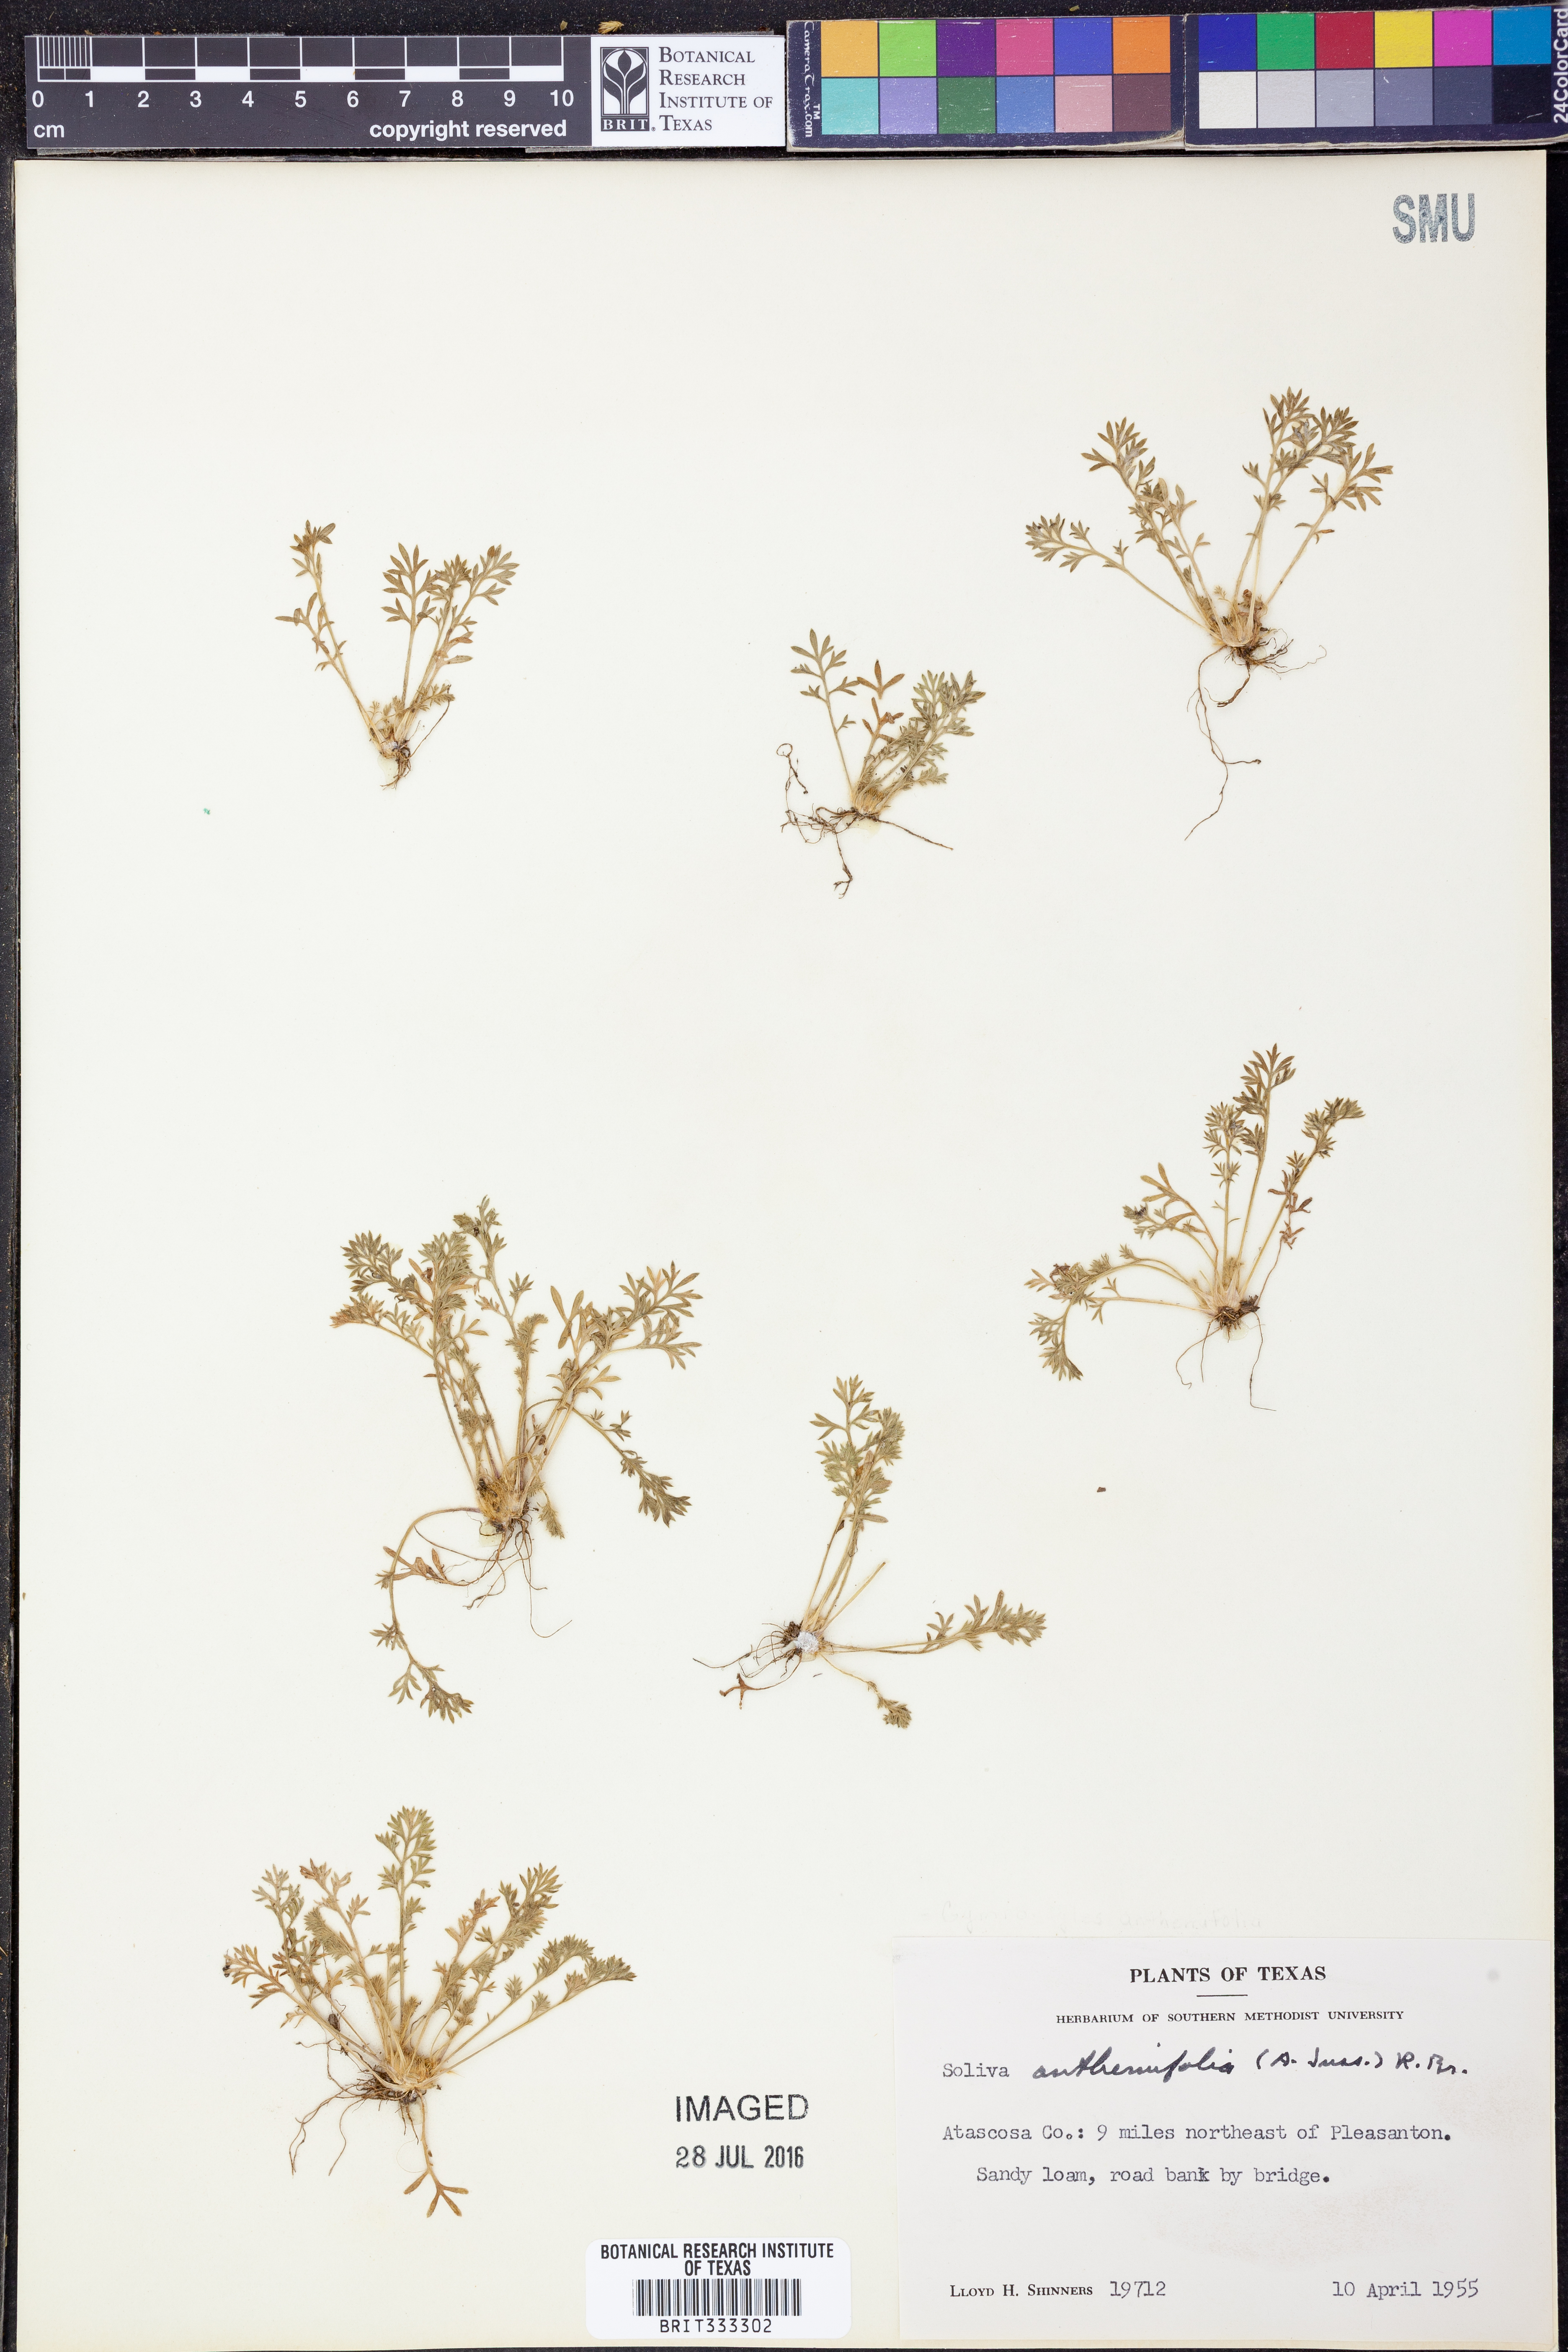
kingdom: Plantae
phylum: Tracheophyta
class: Magnoliopsida
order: Asterales
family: Asteraceae
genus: Soliva
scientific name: Soliva anthemifolia
